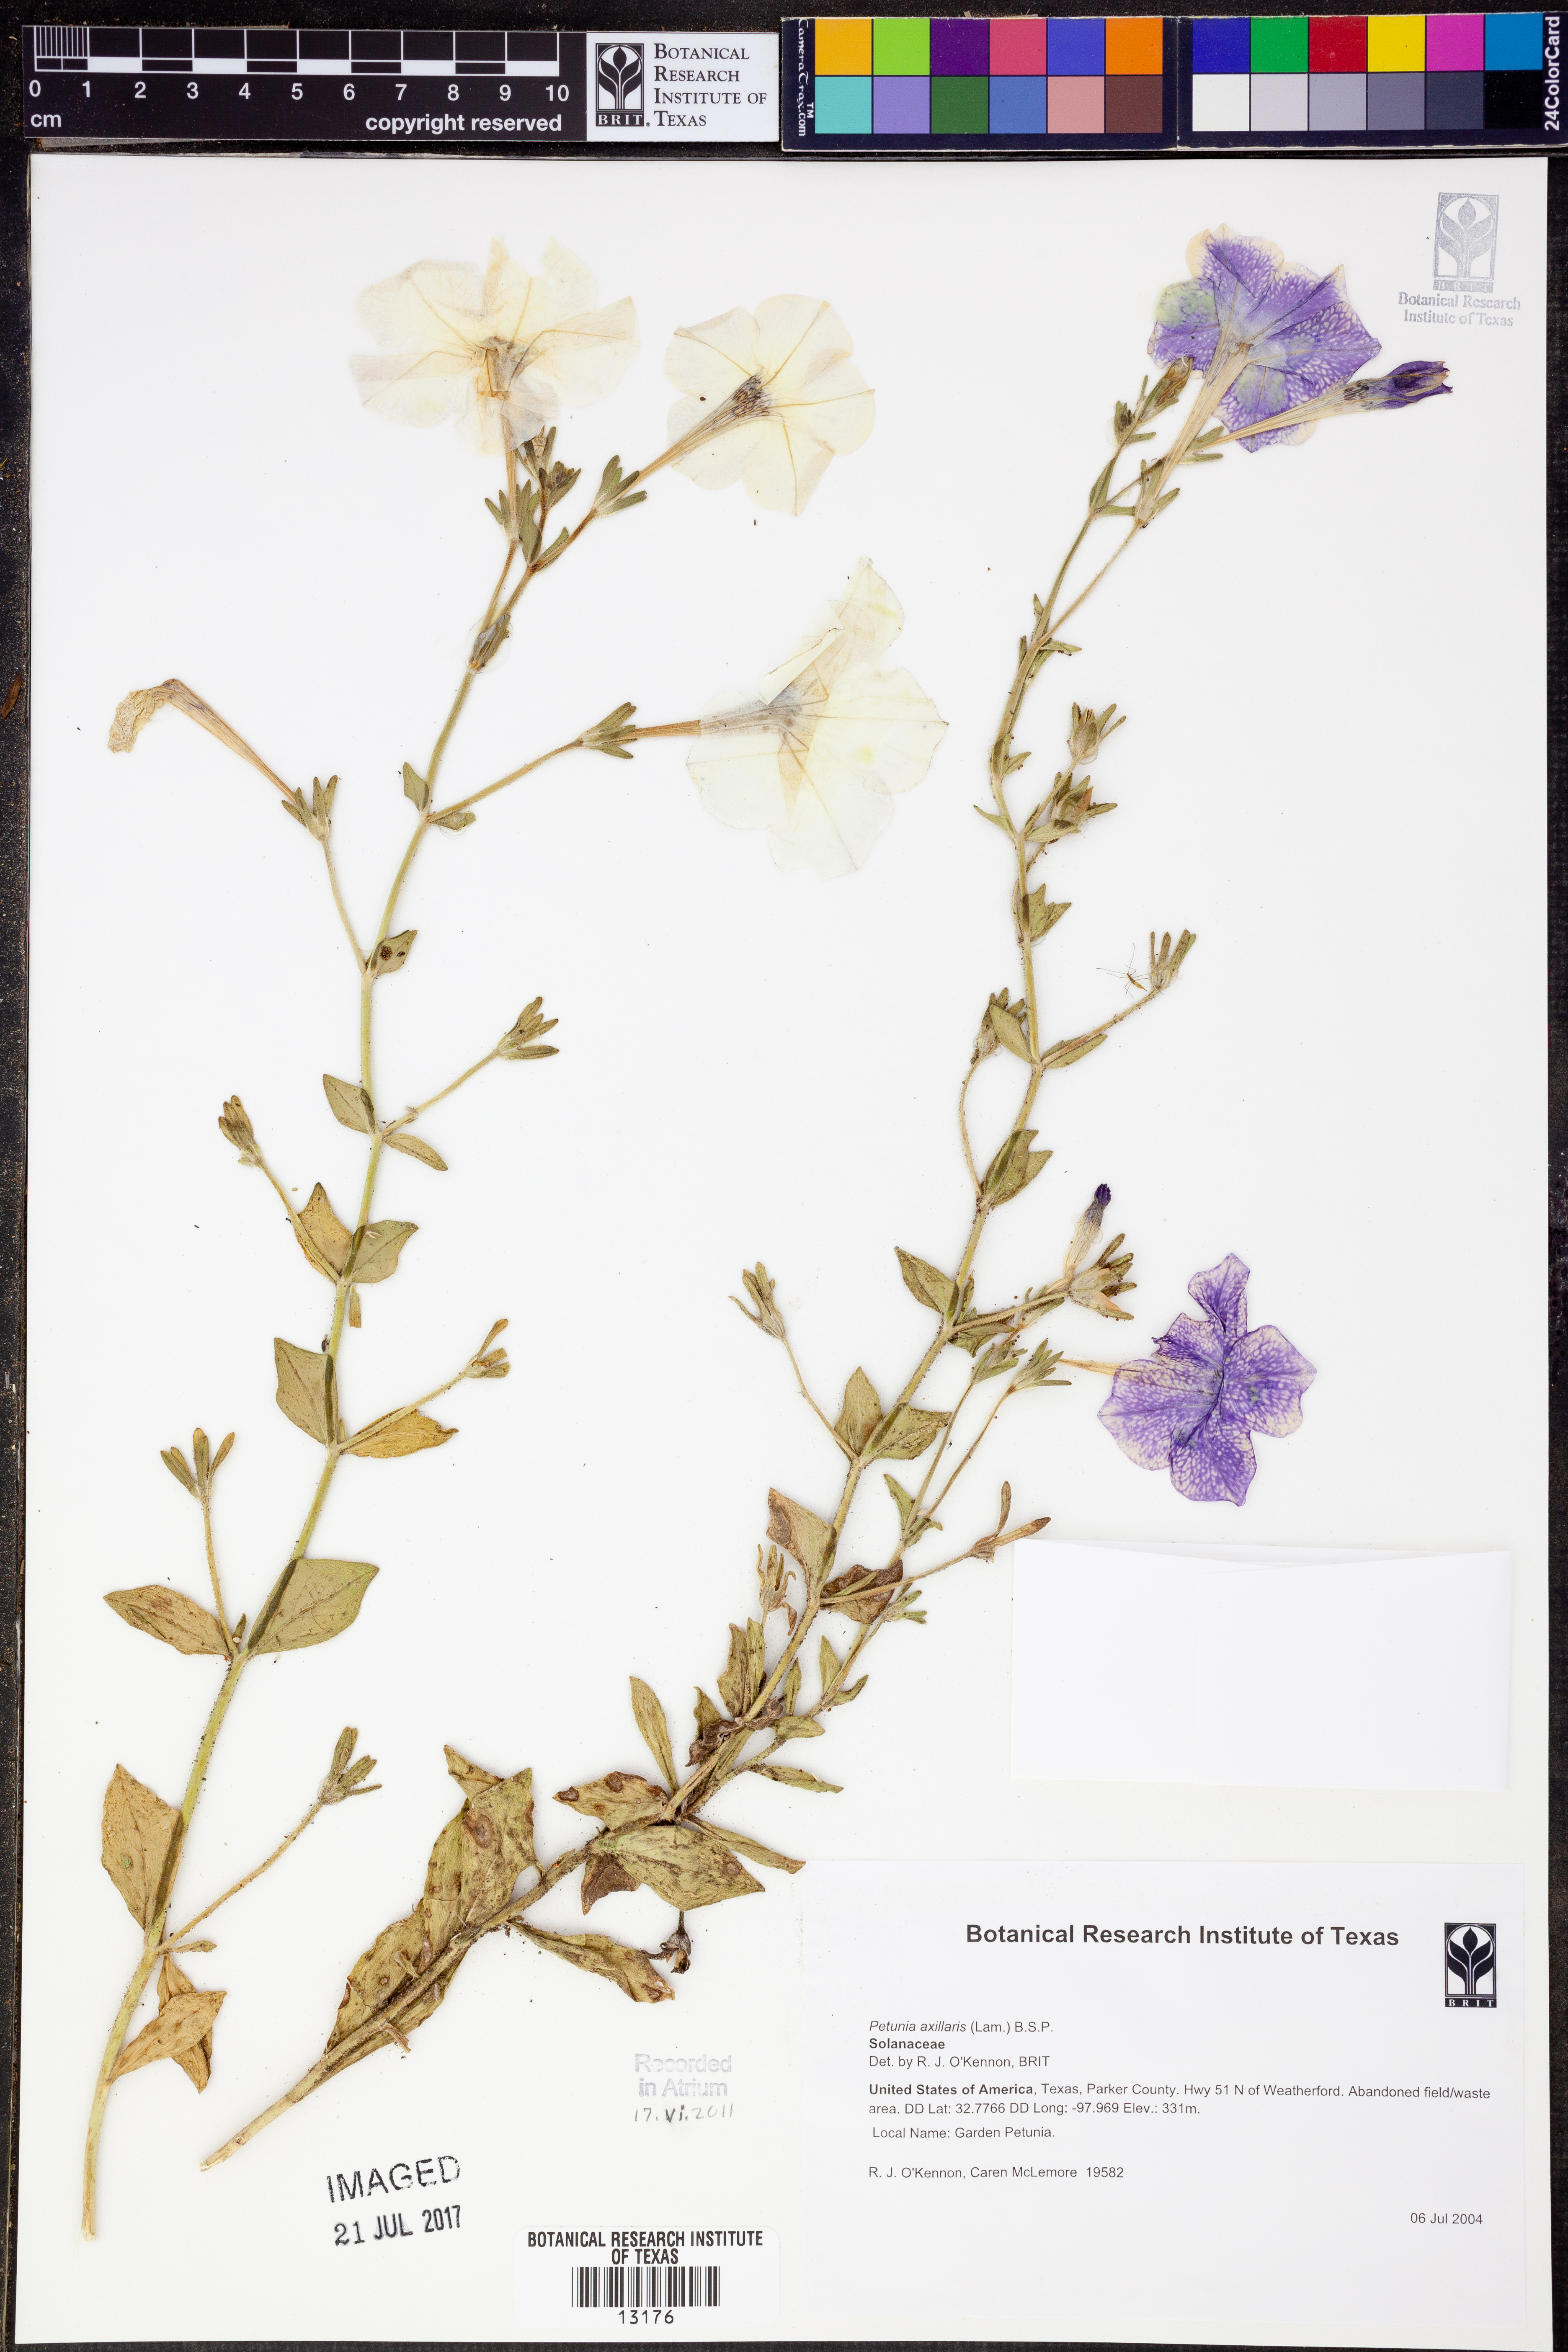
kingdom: Plantae
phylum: Tracheophyta
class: Magnoliopsida
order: Solanales
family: Solanaceae
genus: Petunia
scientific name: Petunia axillaris
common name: Large white petunia
